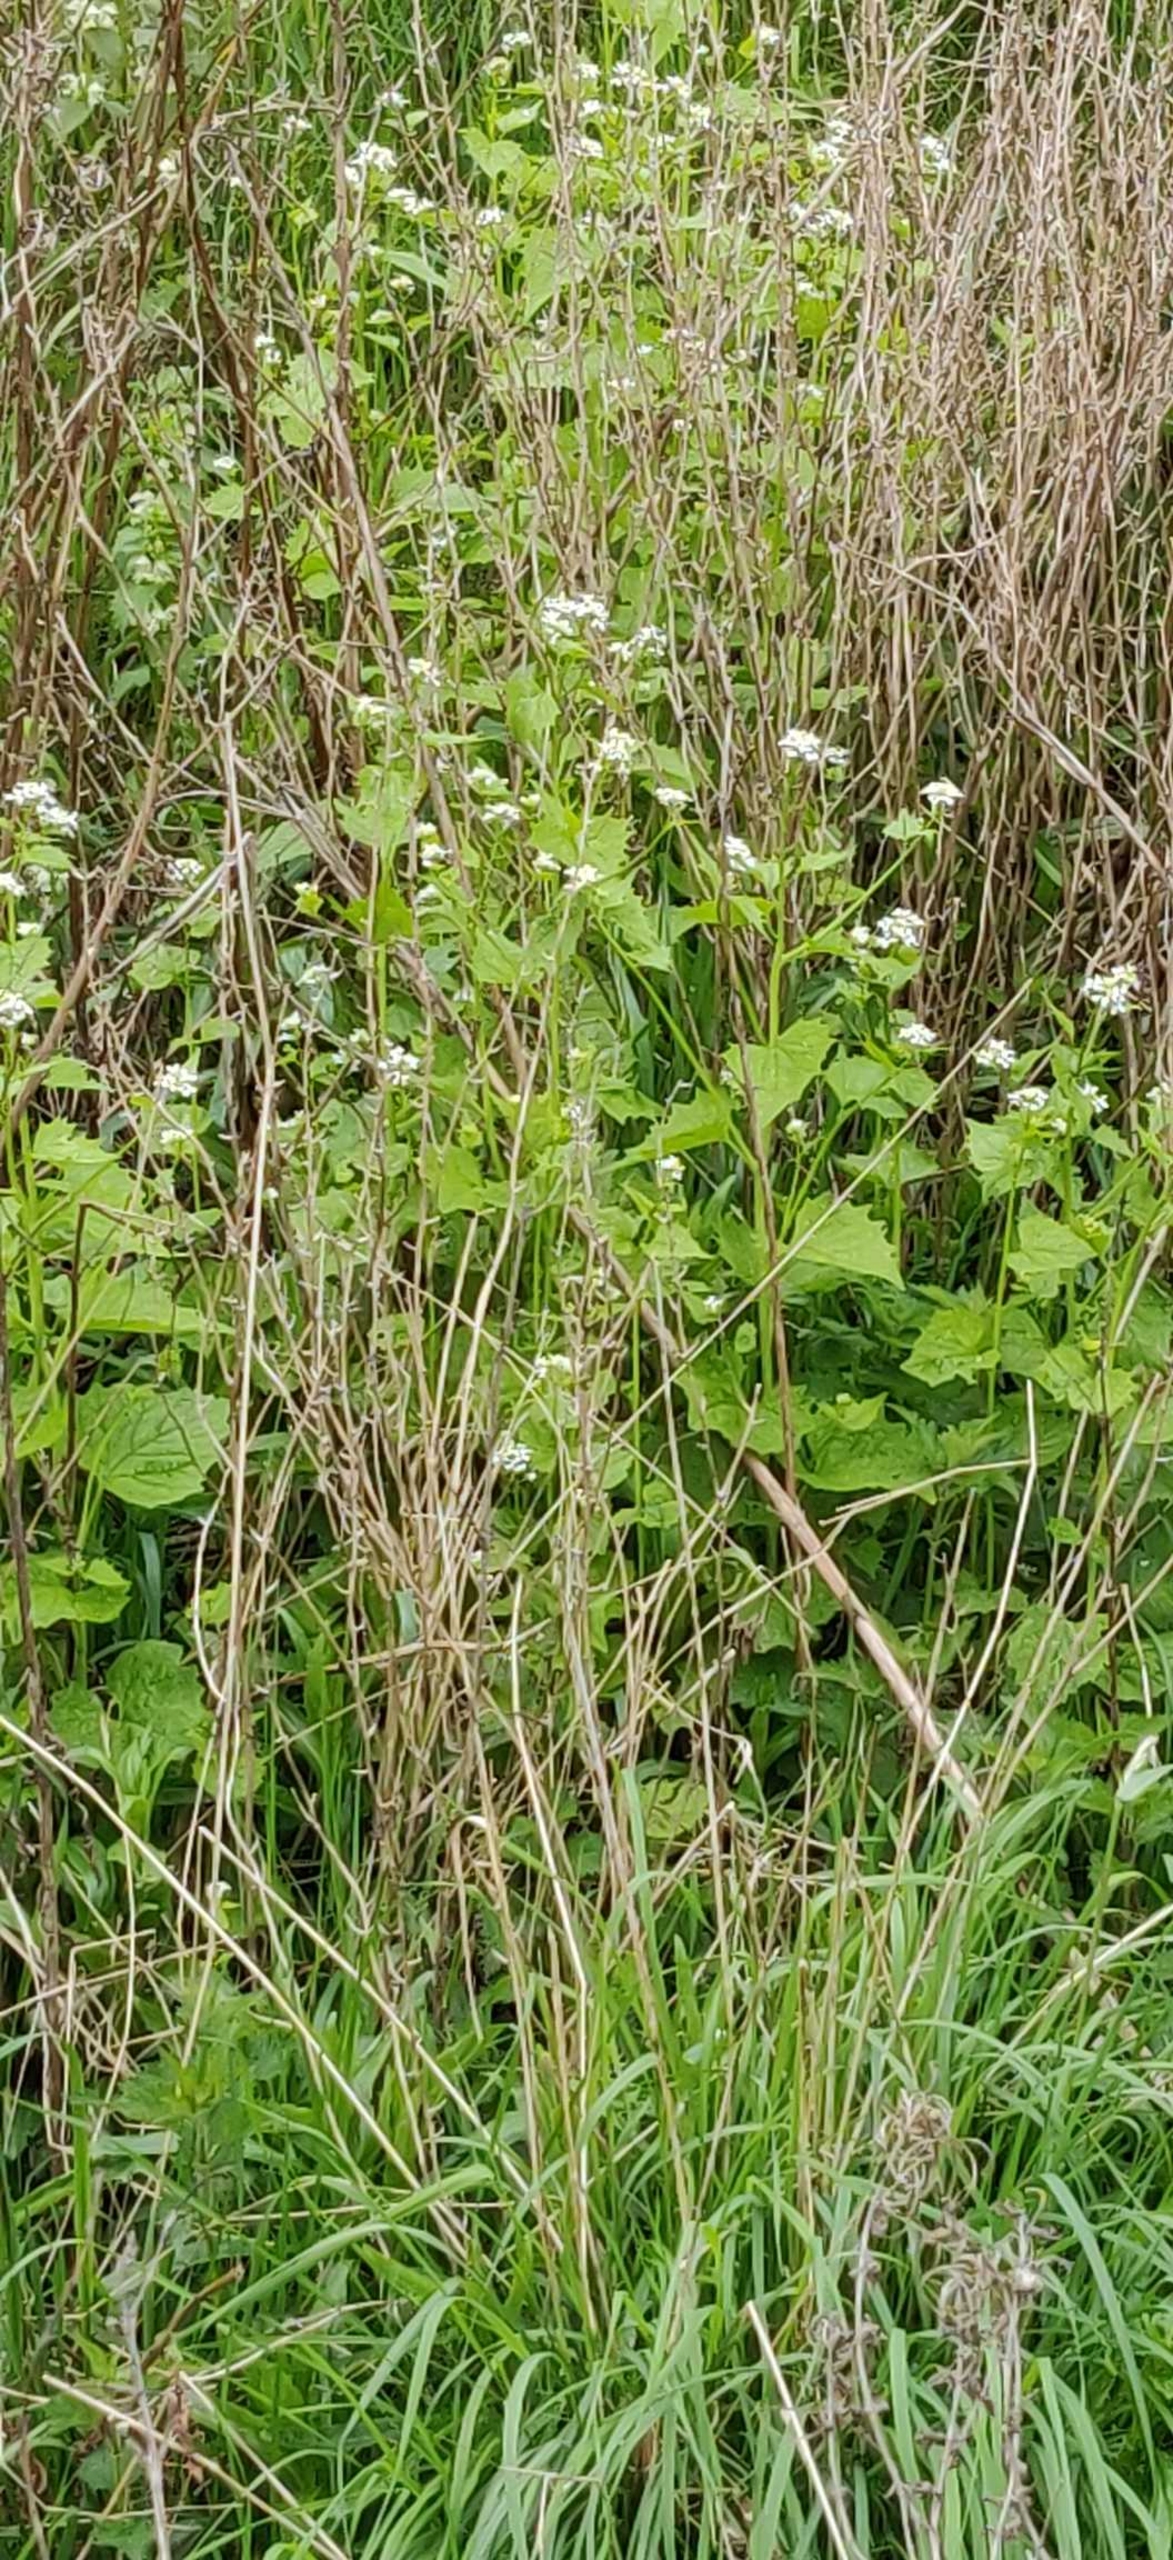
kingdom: Plantae
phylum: Tracheophyta
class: Magnoliopsida
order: Brassicales
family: Brassicaceae
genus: Alliaria
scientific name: Alliaria petiolata
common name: Løgkarse
